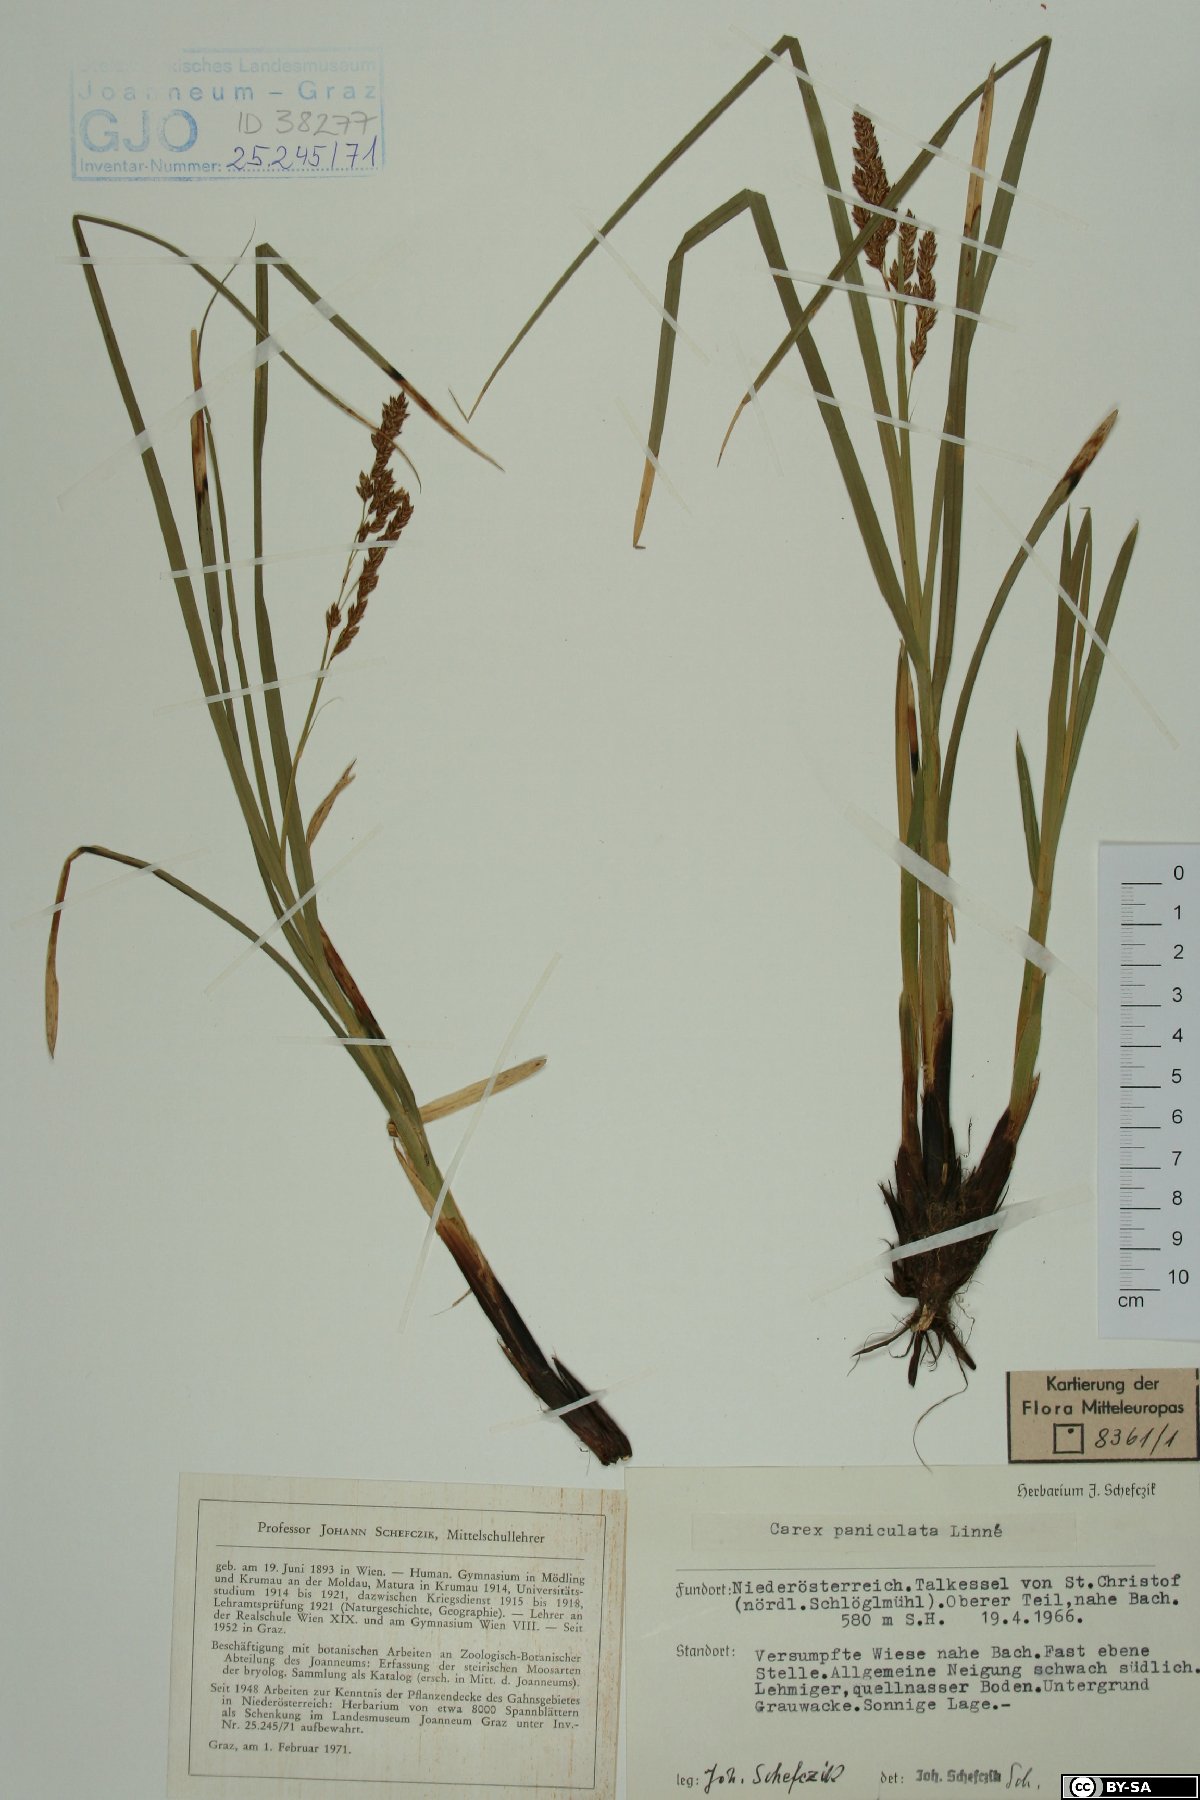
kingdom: Plantae
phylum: Tracheophyta
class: Liliopsida
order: Poales
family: Cyperaceae
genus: Carex
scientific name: Carex paniculata
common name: Greater tussock-sedge
